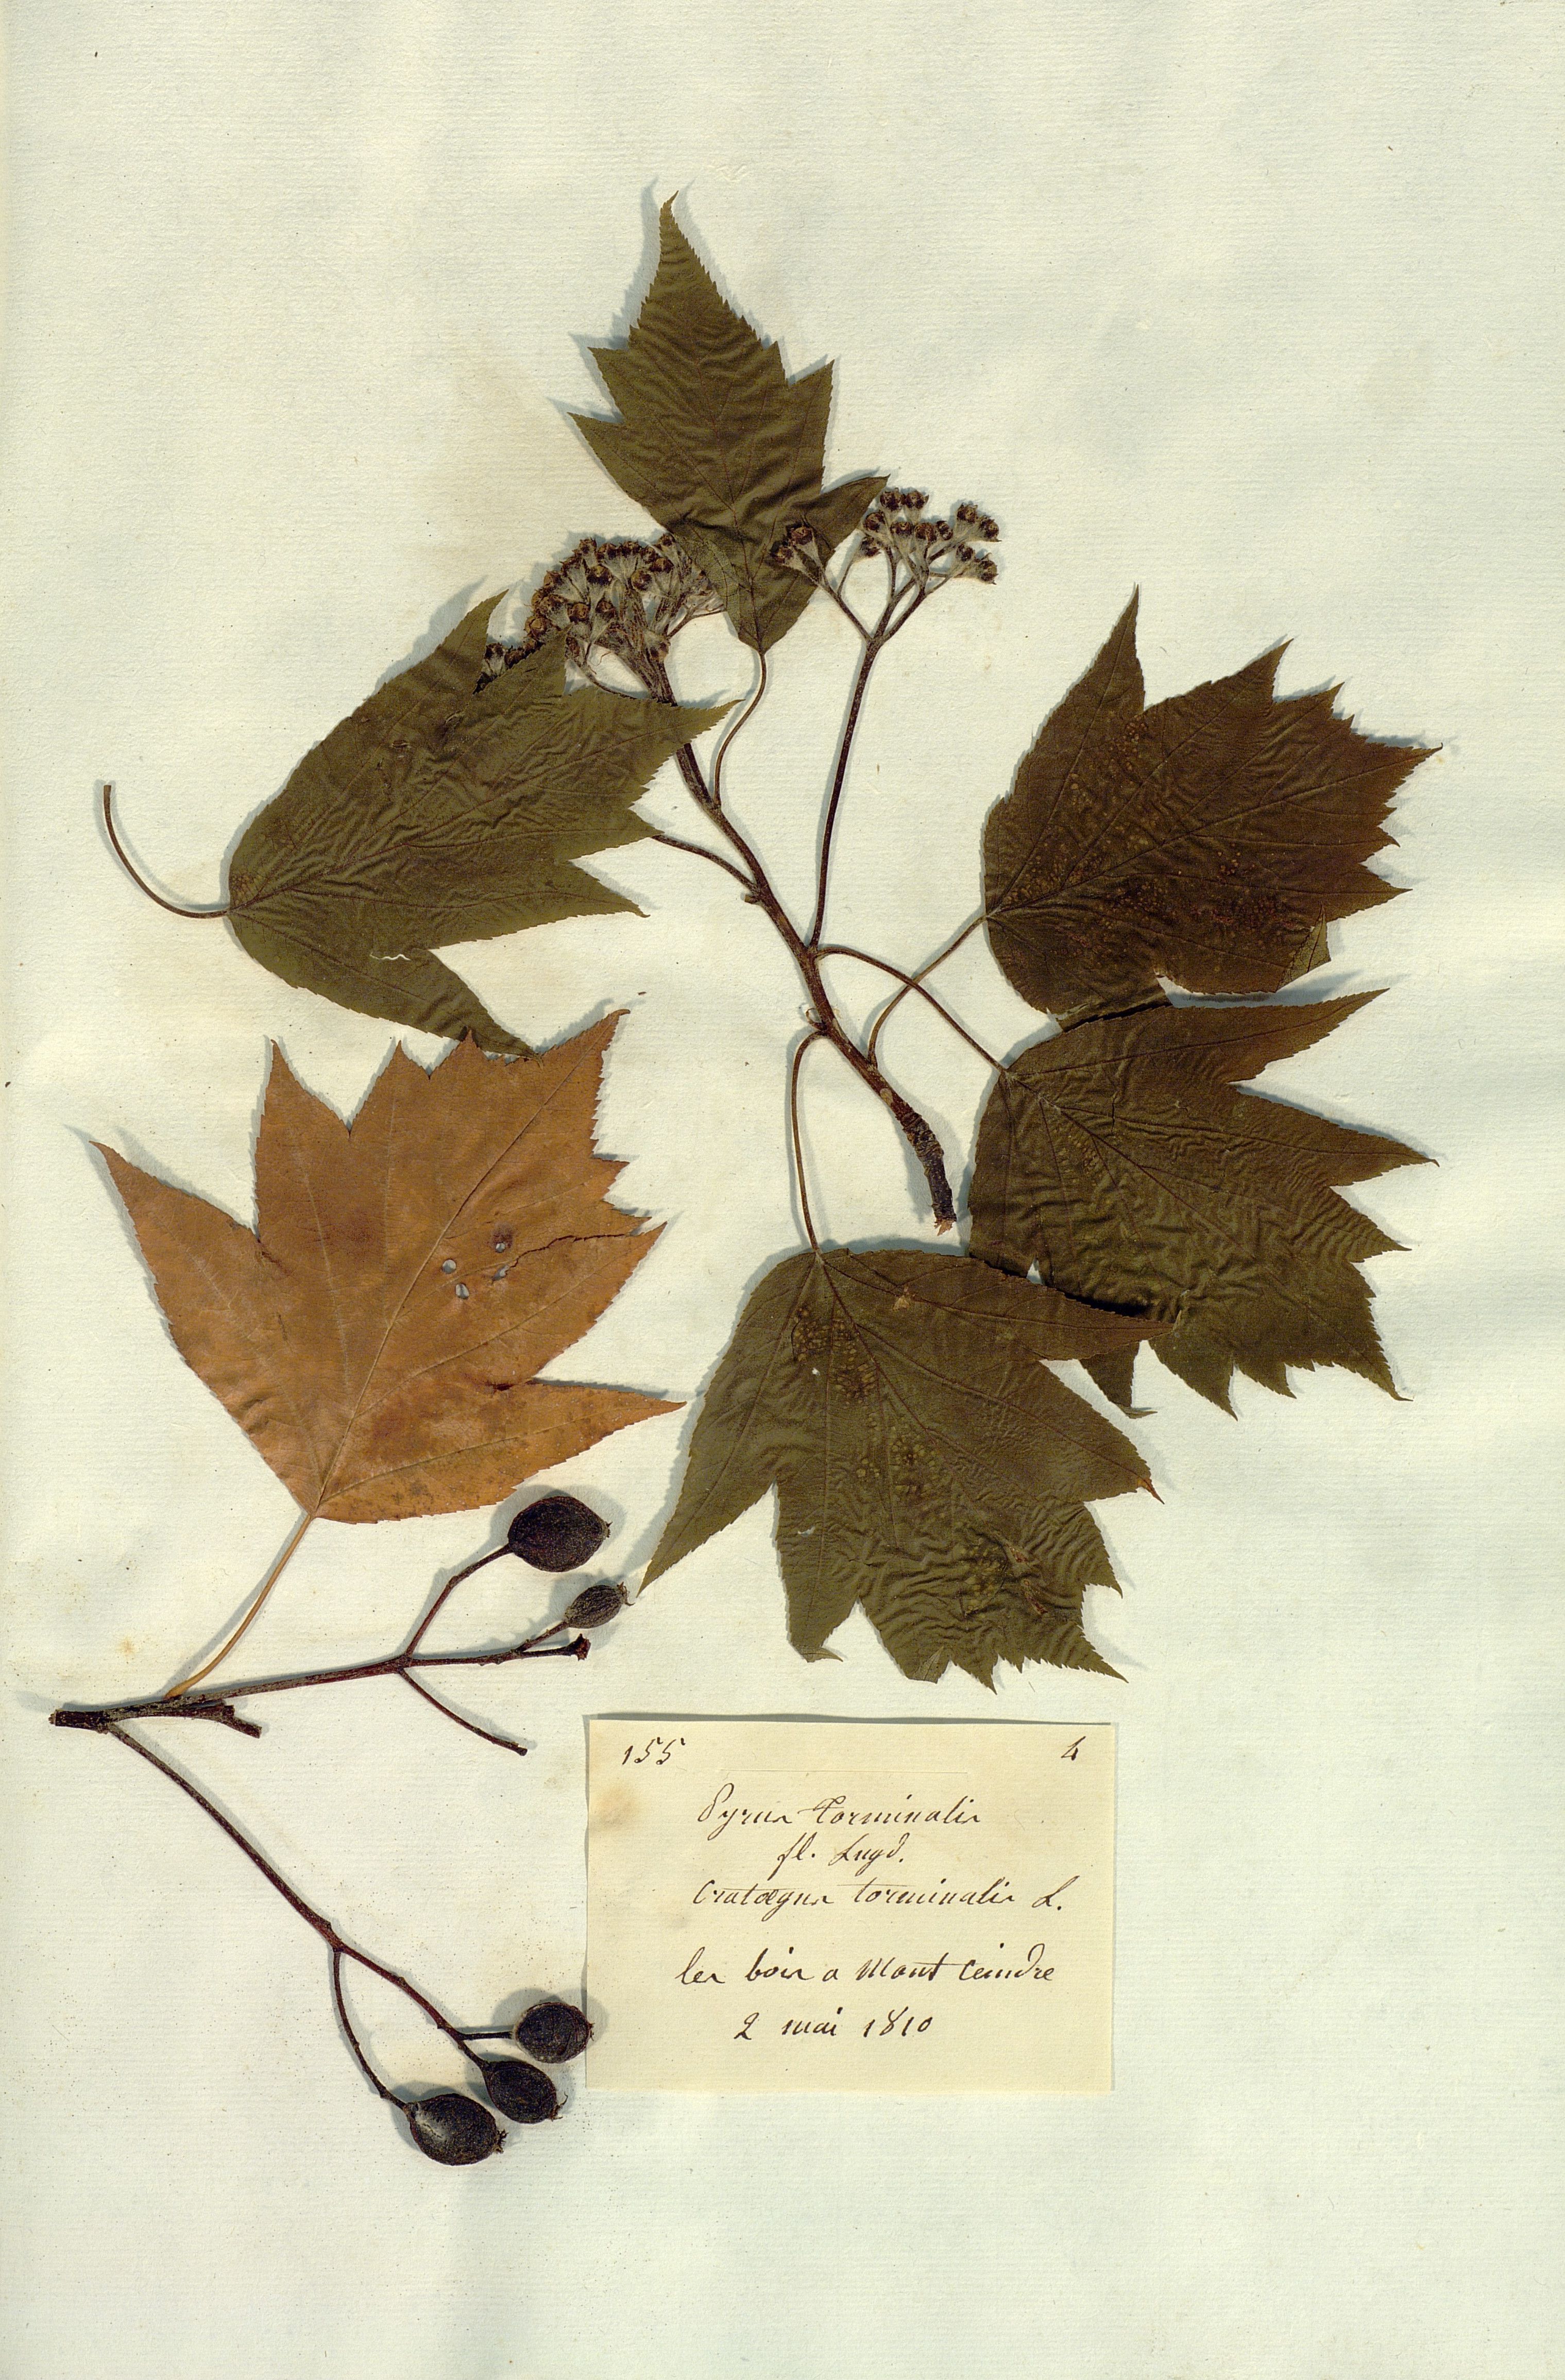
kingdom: Plantae
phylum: Tracheophyta
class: Magnoliopsida
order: Rosales
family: Rosaceae
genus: Torminalis
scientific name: Torminalis glaberrima
